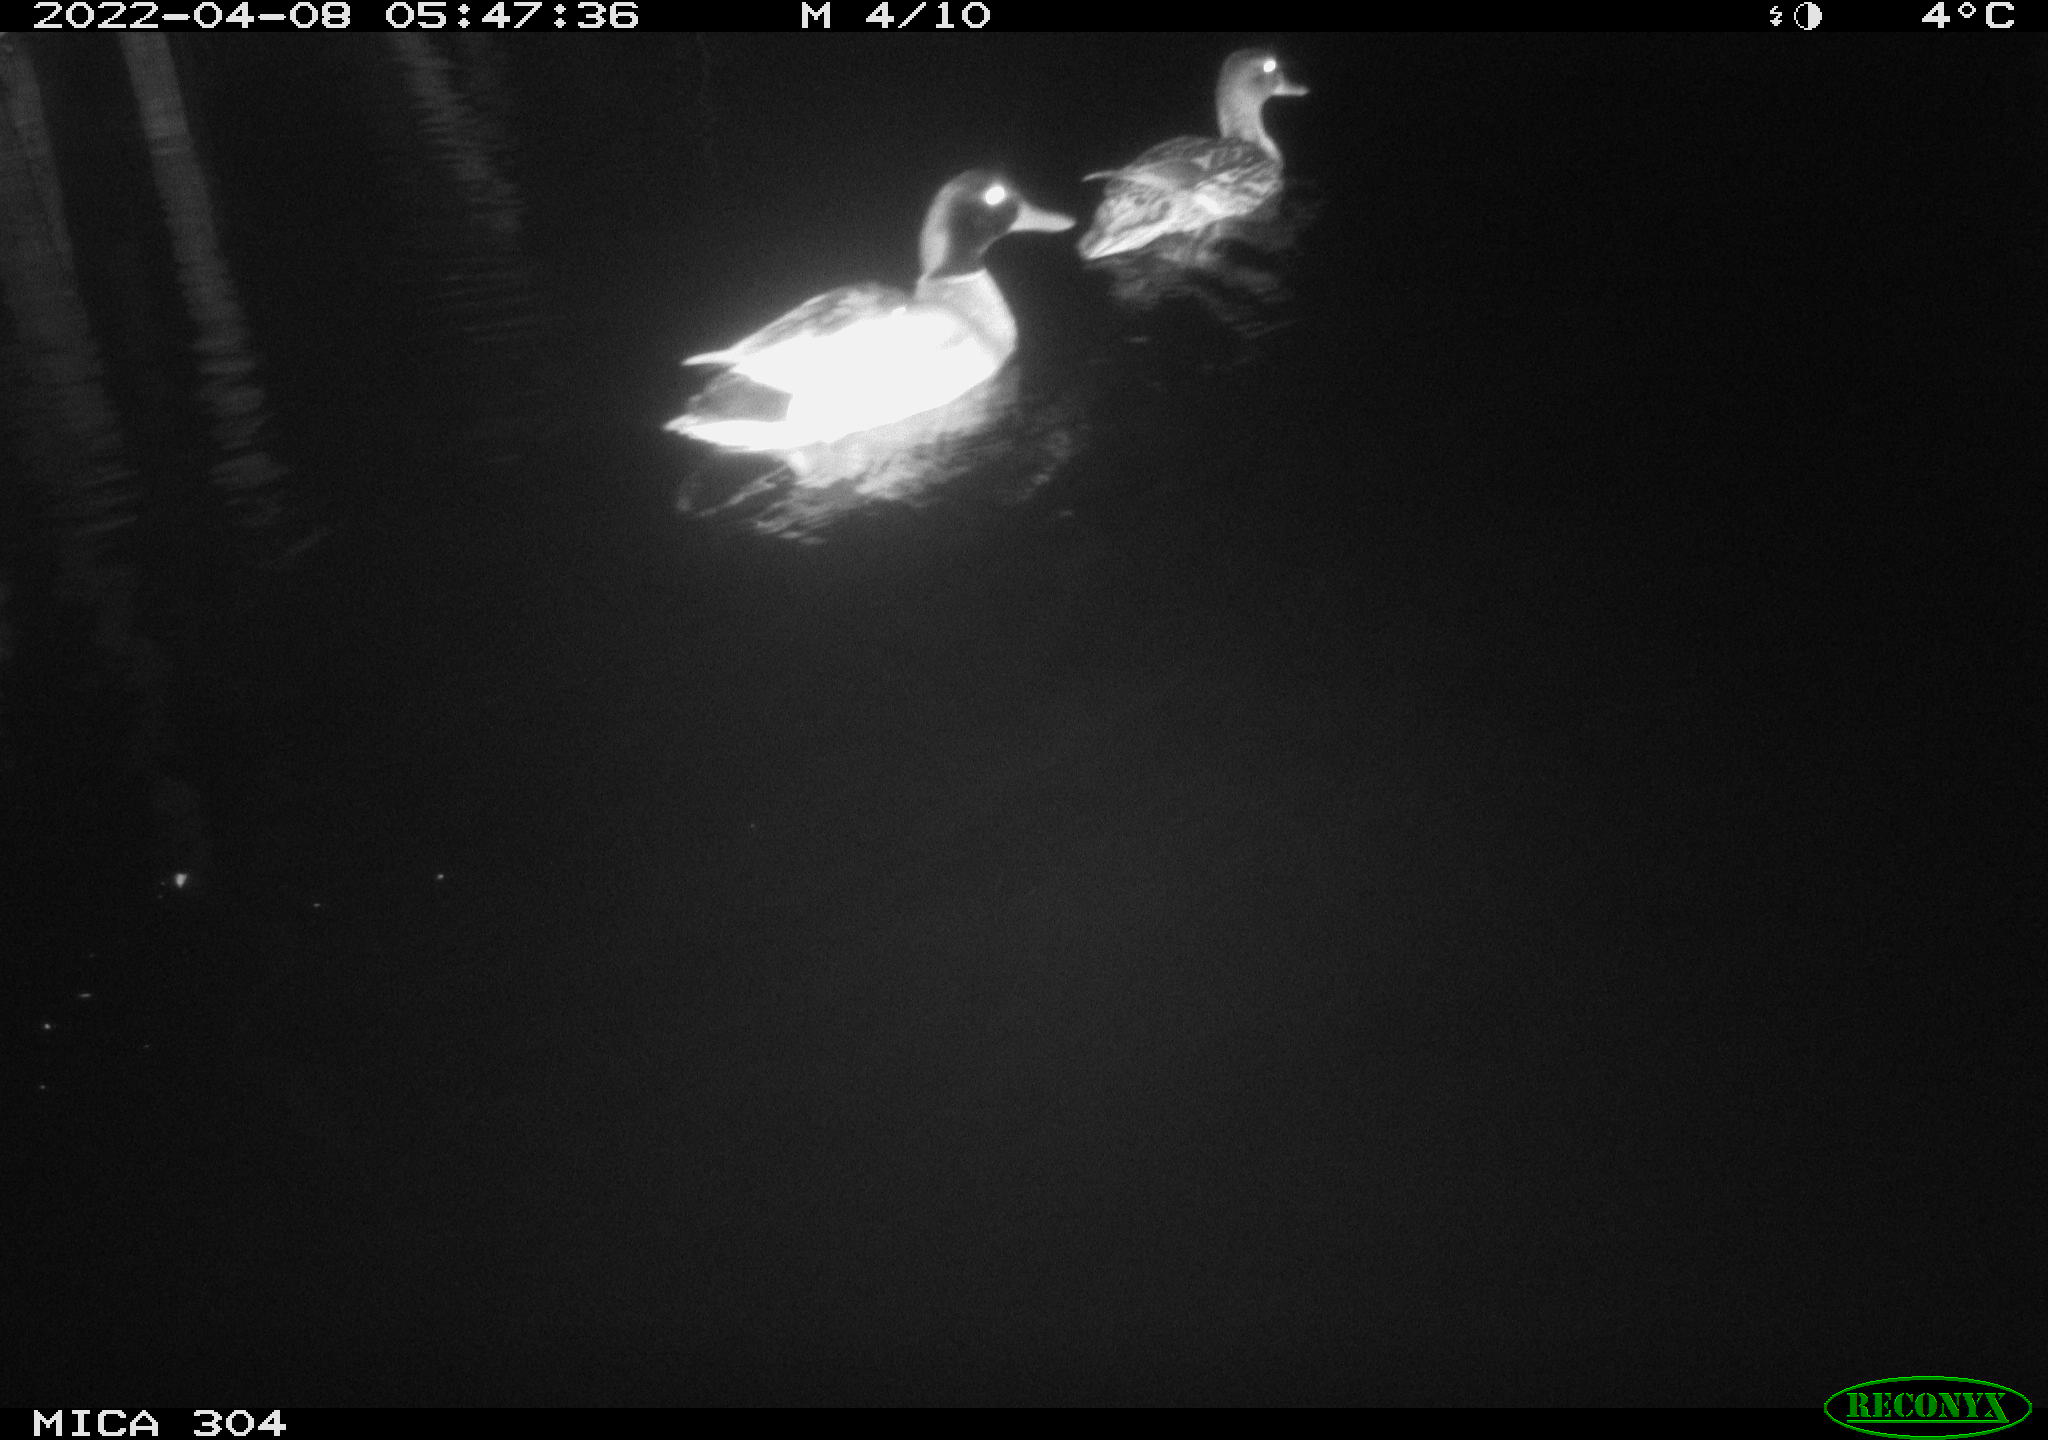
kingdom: Animalia
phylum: Chordata
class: Aves
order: Anseriformes
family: Anatidae
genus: Anas
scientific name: Anas platyrhynchos
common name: Mallard
